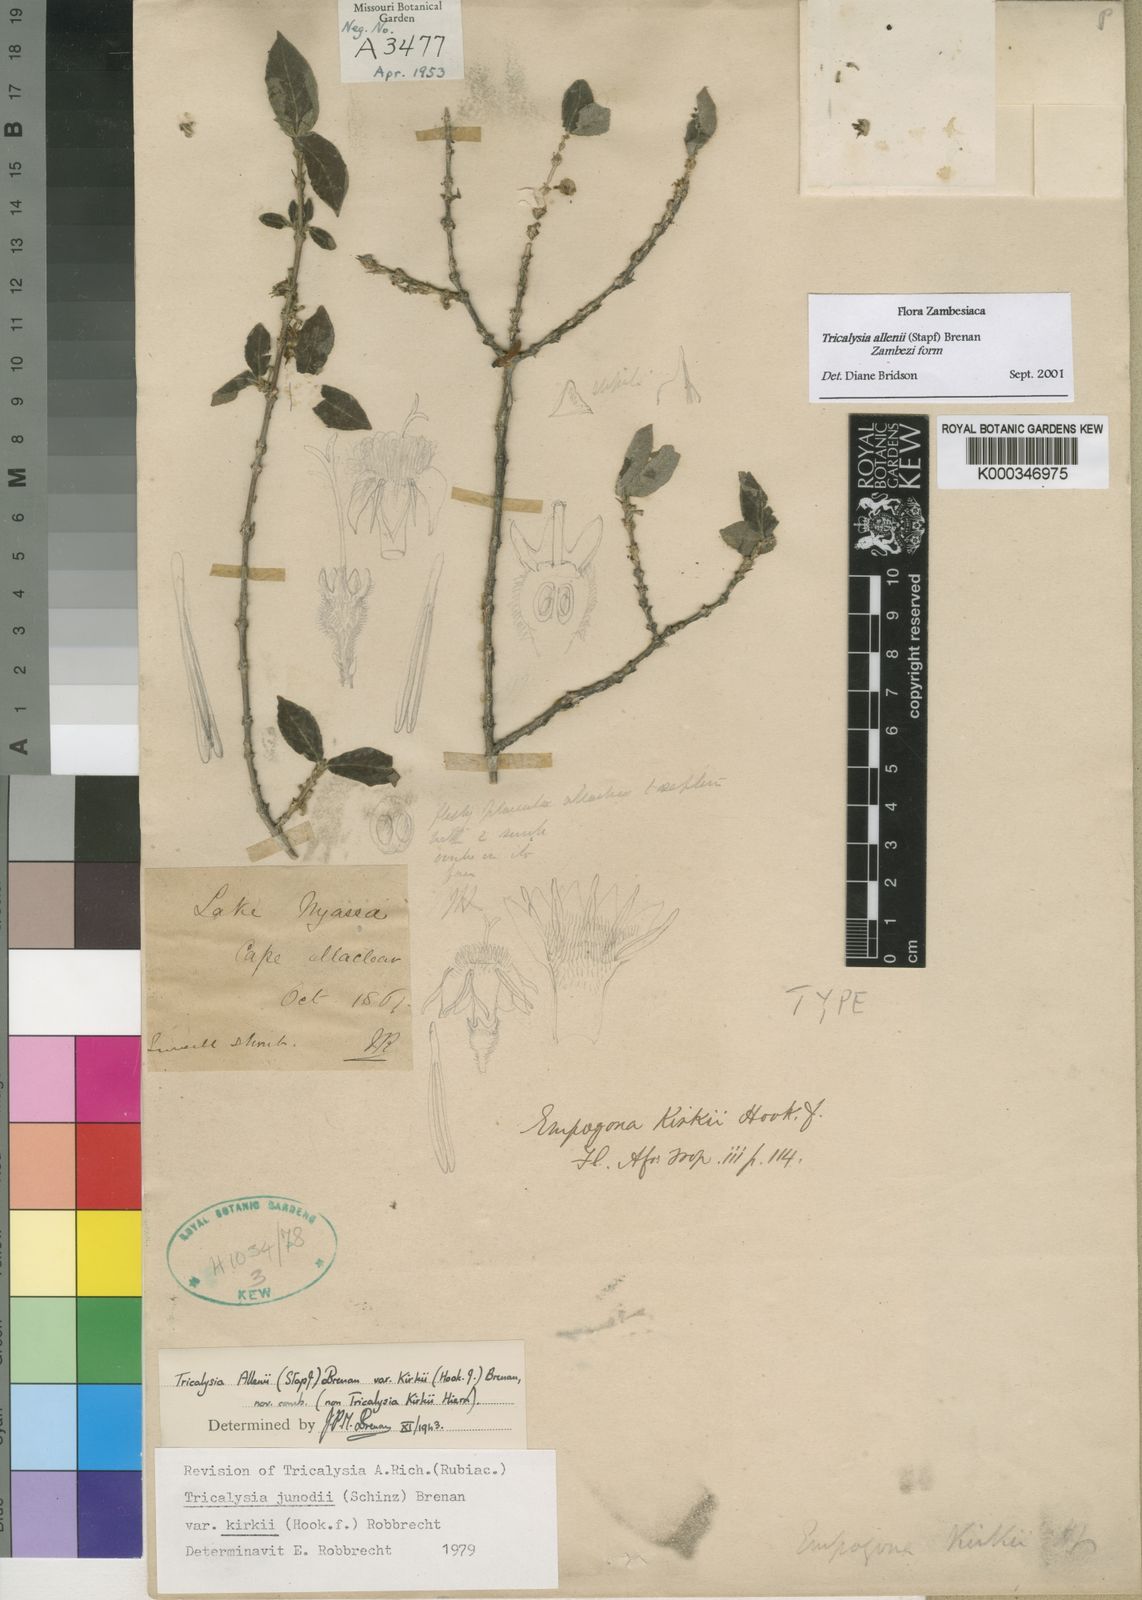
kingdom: Plantae
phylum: Tracheophyta
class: Magnoliopsida
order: Gentianales
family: Rubiaceae
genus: Empogona
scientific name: Empogona kirkii
